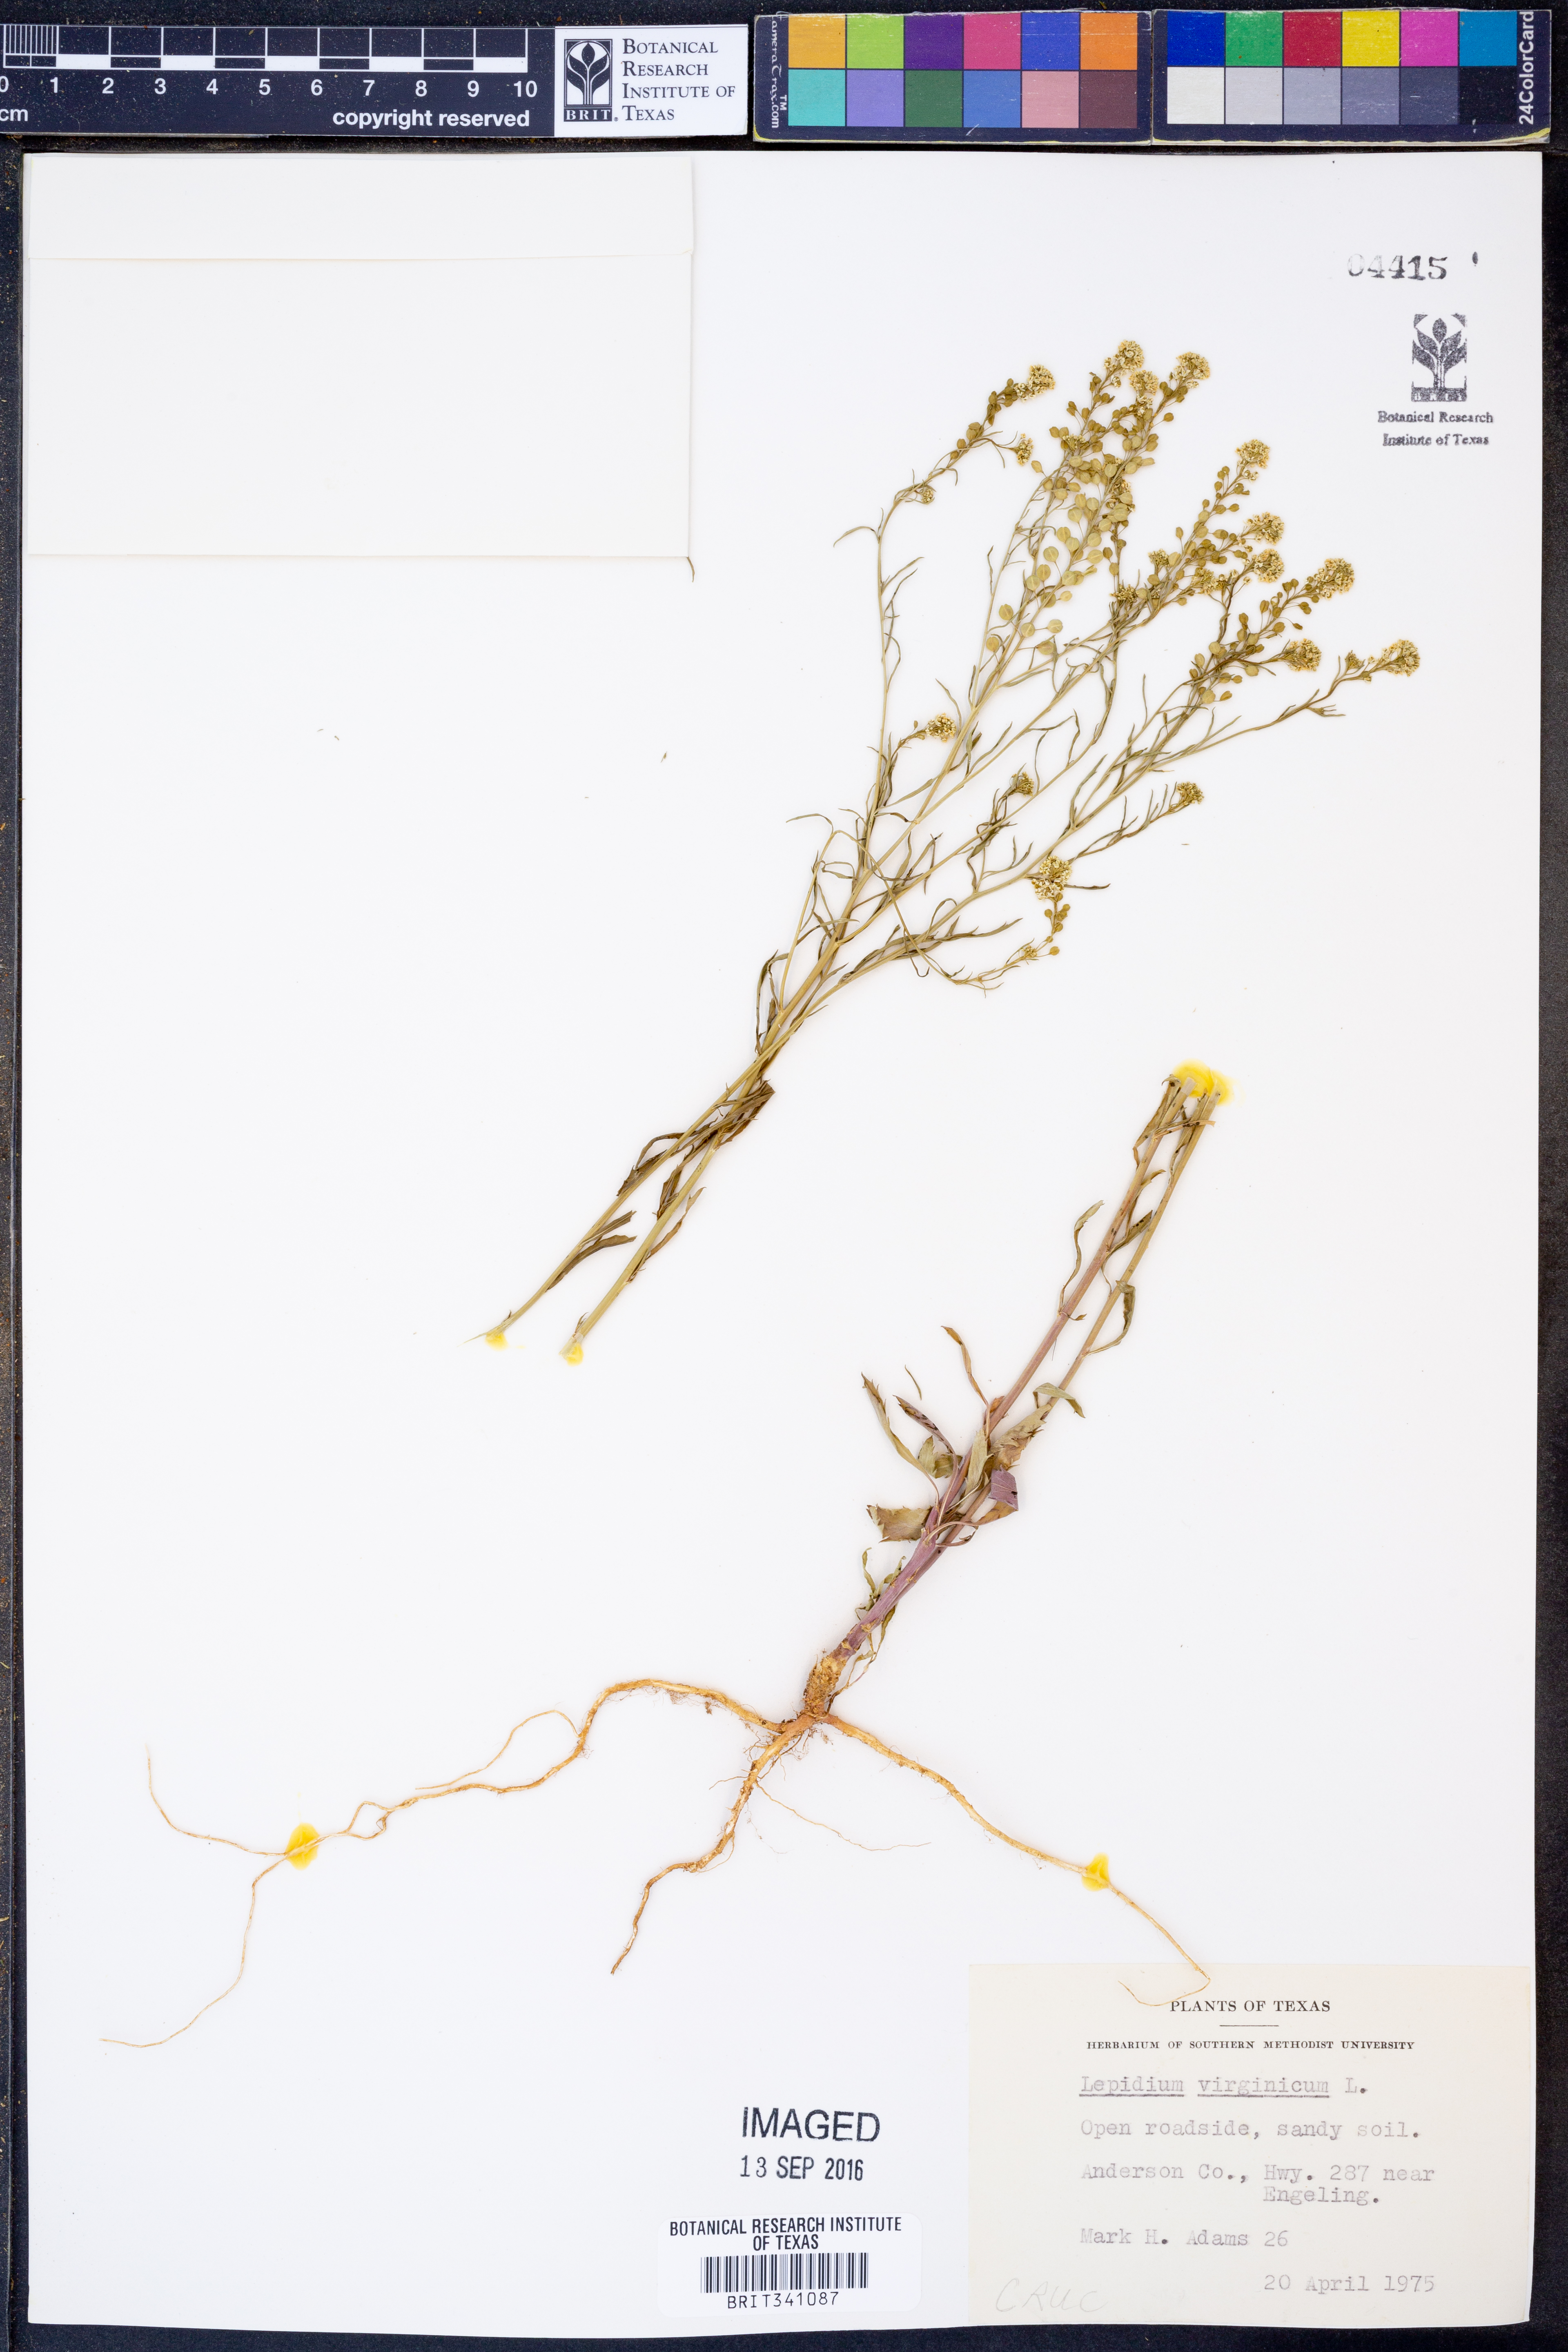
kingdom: Plantae
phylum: Tracheophyta
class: Magnoliopsida
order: Brassicales
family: Brassicaceae
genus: Lepidium
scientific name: Lepidium virginicum
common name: Least pepperwort
